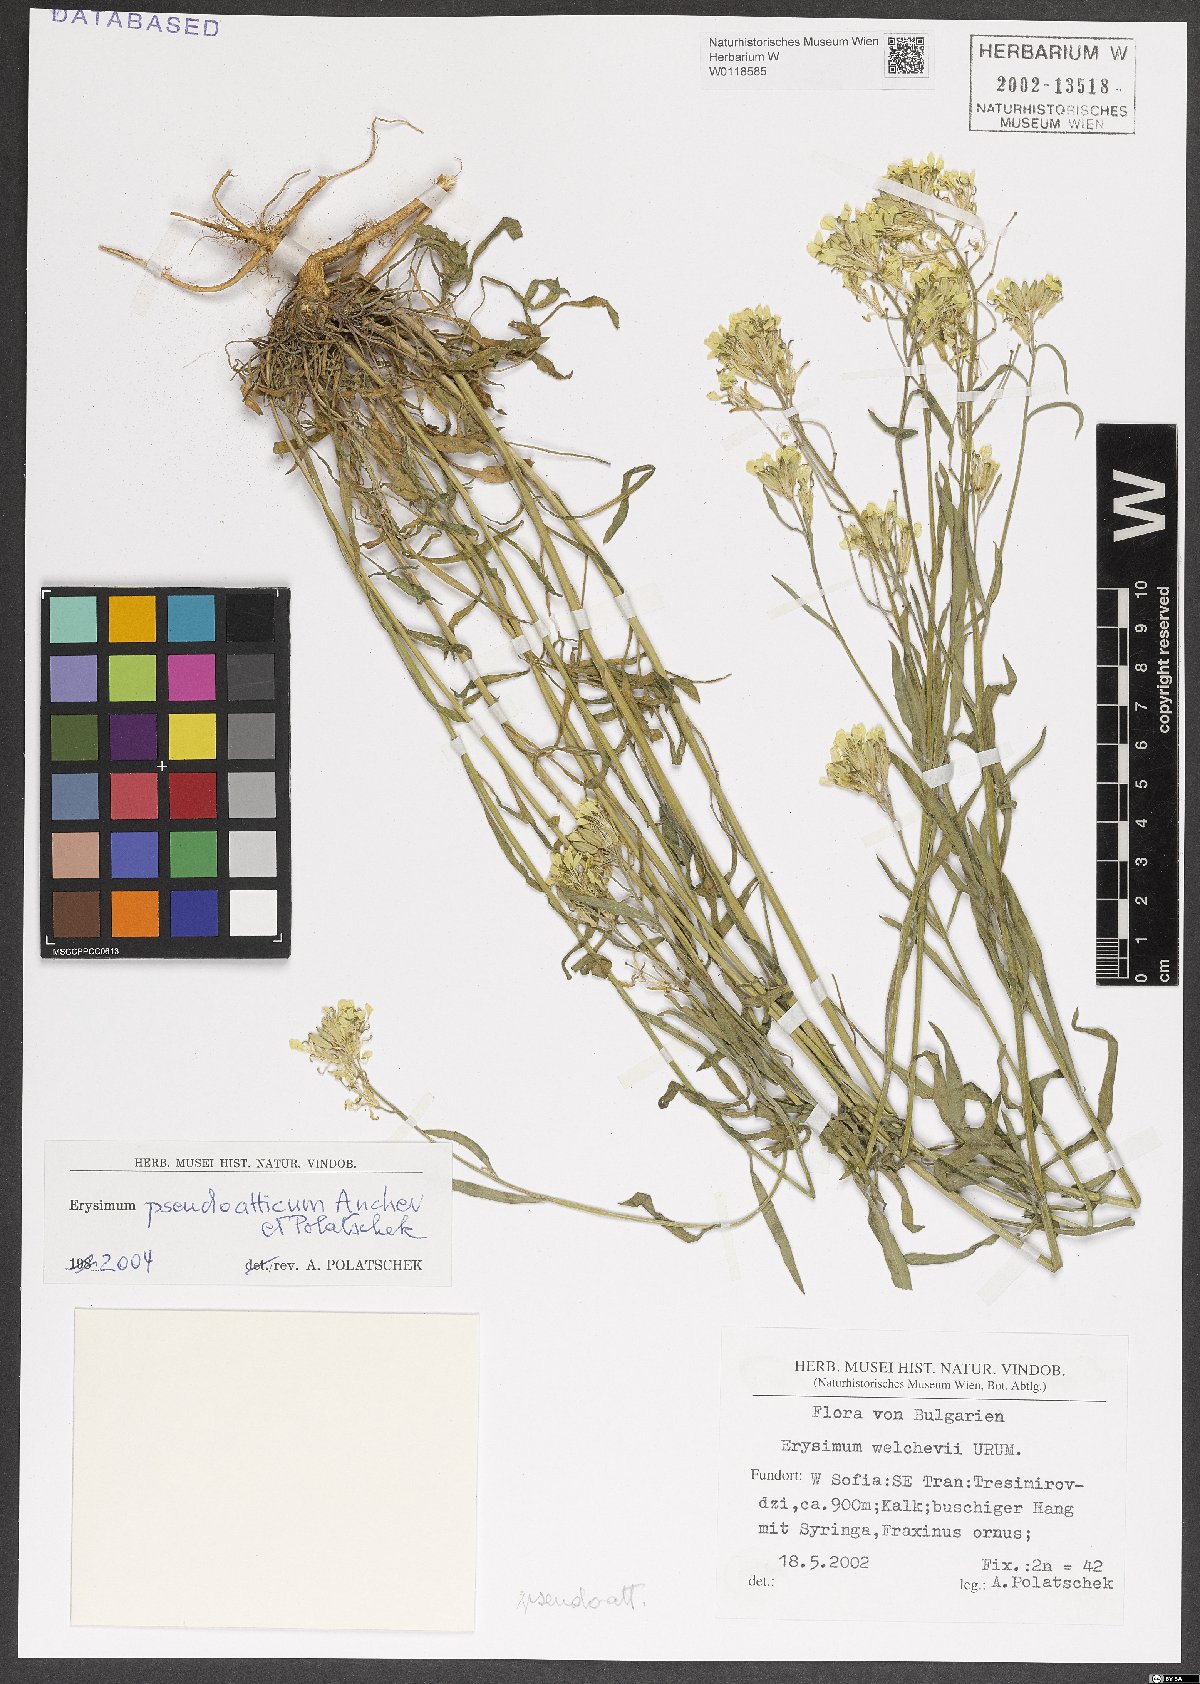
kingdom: Plantae
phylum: Tracheophyta
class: Magnoliopsida
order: Brassicales
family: Brassicaceae
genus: Erysimum
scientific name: Erysimum pseudoatticum
